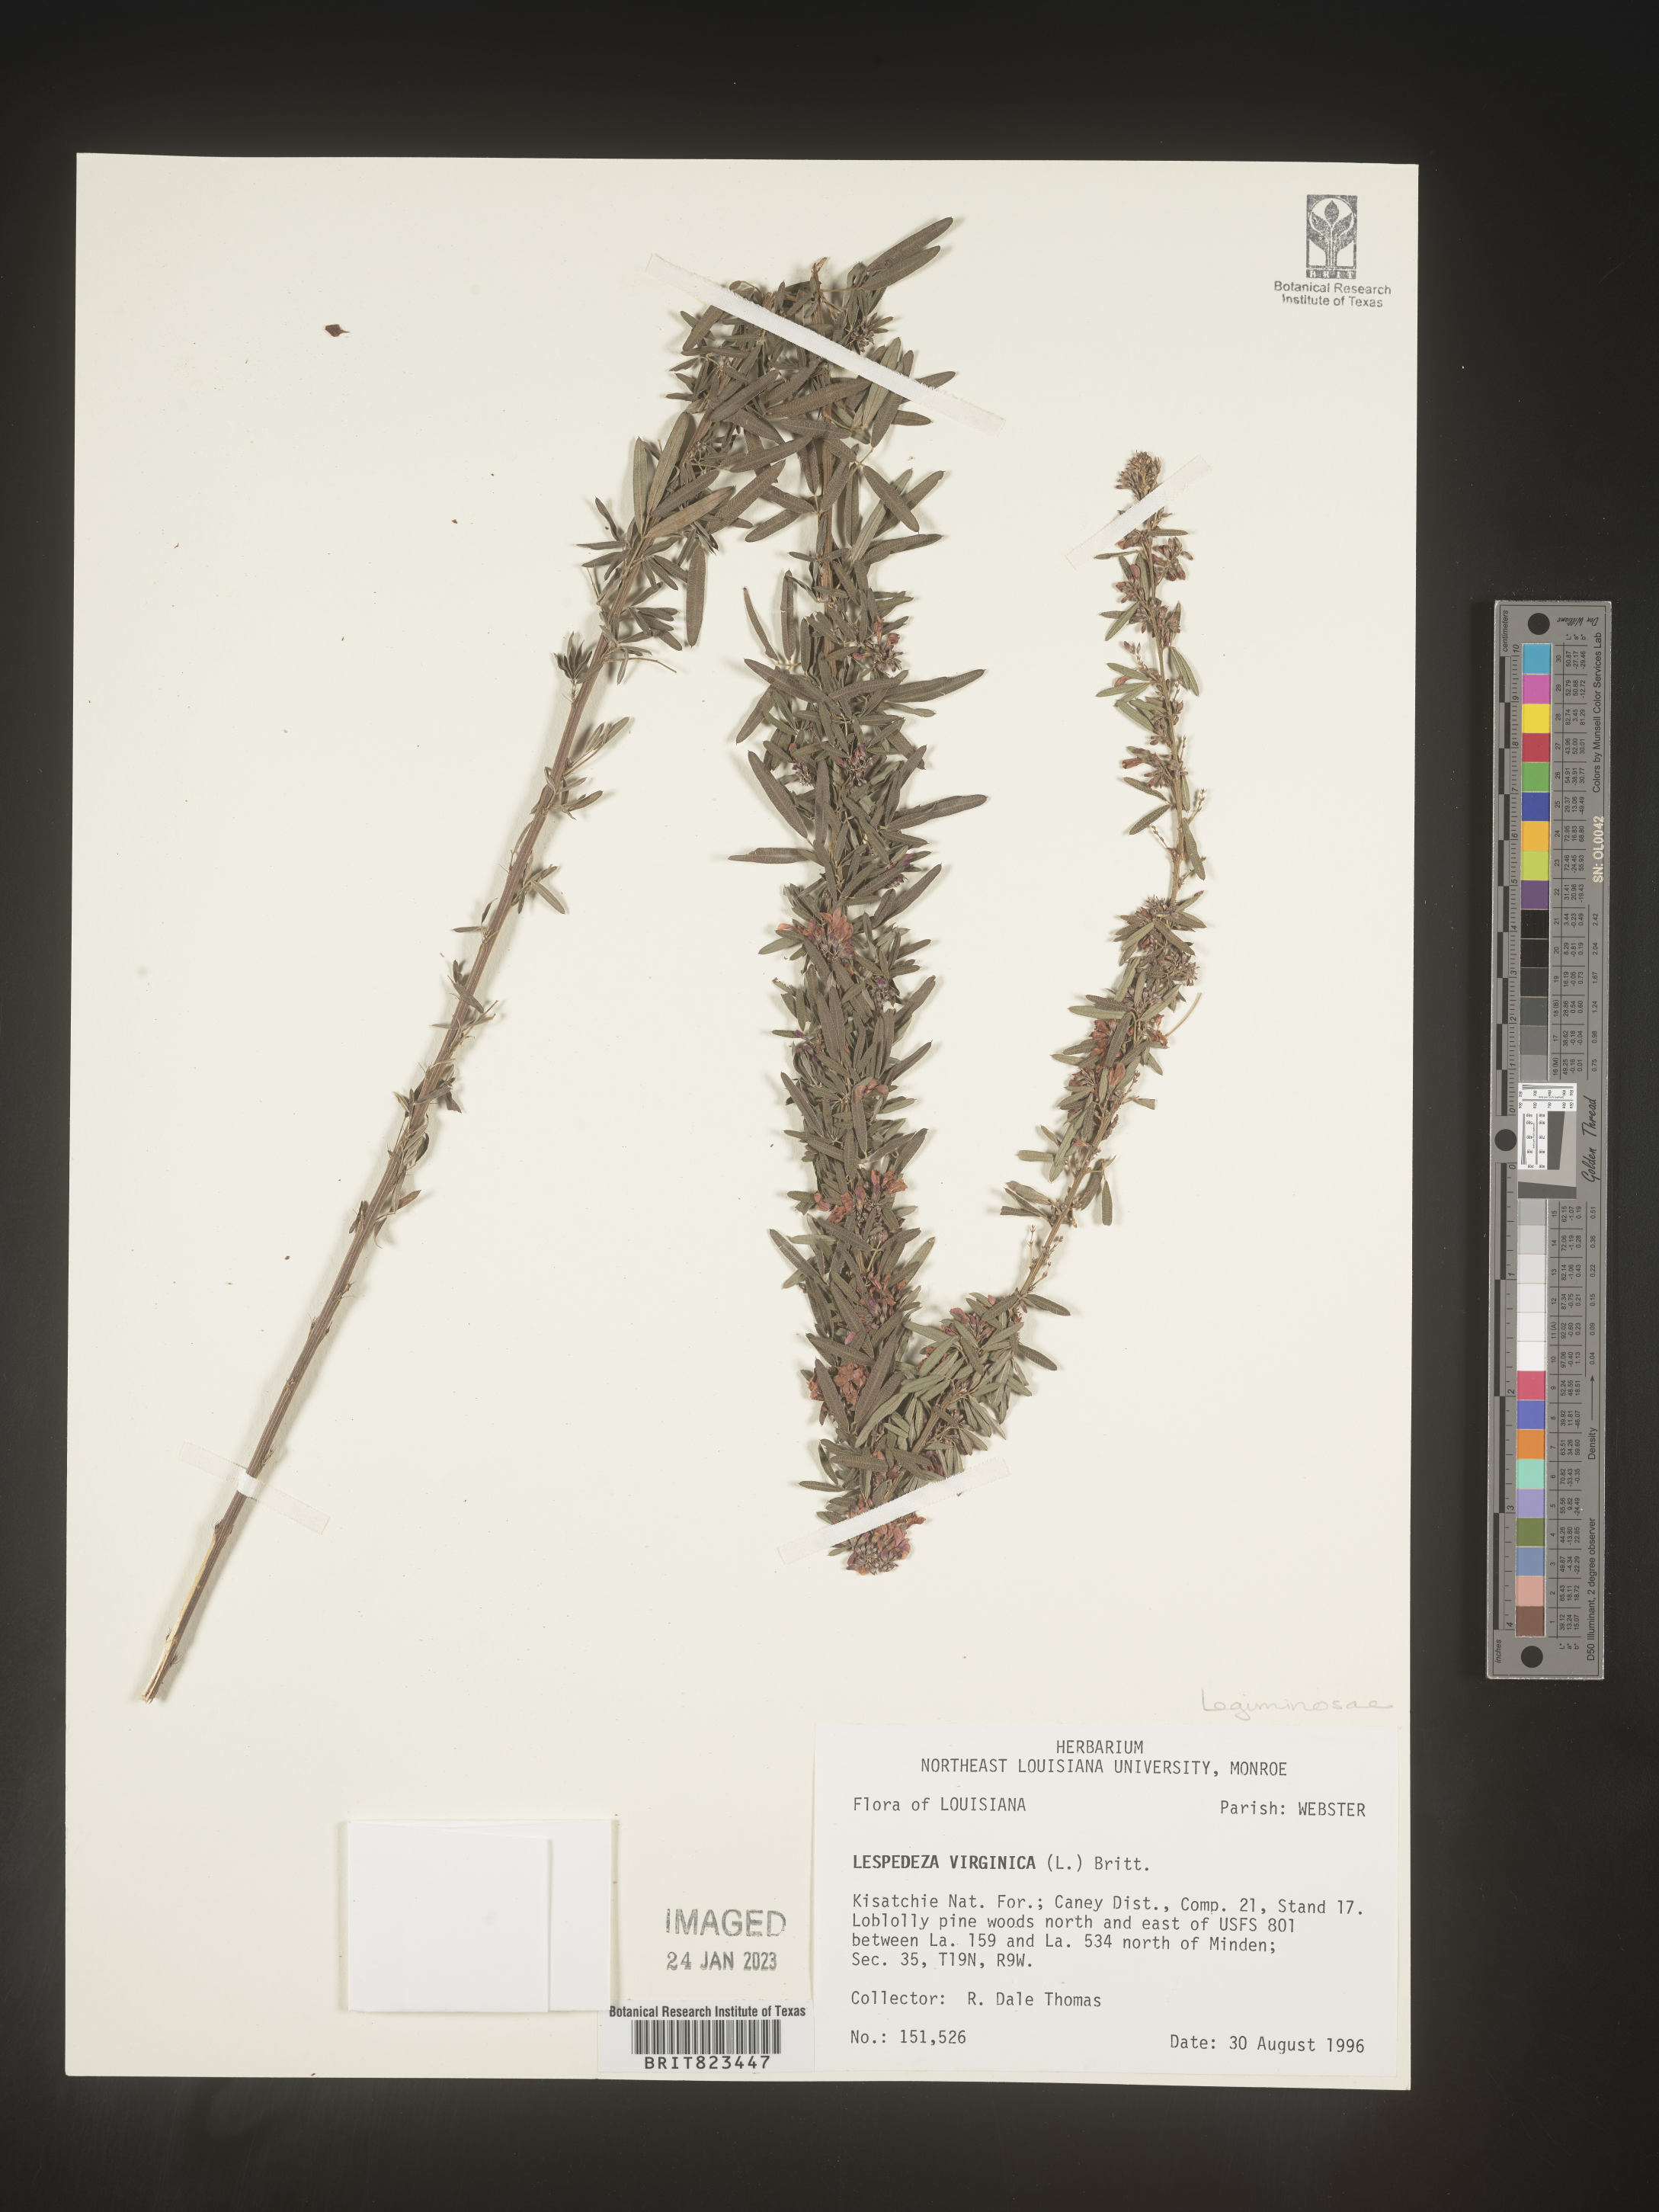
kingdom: Plantae
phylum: Tracheophyta
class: Magnoliopsida
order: Fabales
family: Fabaceae
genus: Lespedeza
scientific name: Lespedeza virginica
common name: Slender bush-clover
